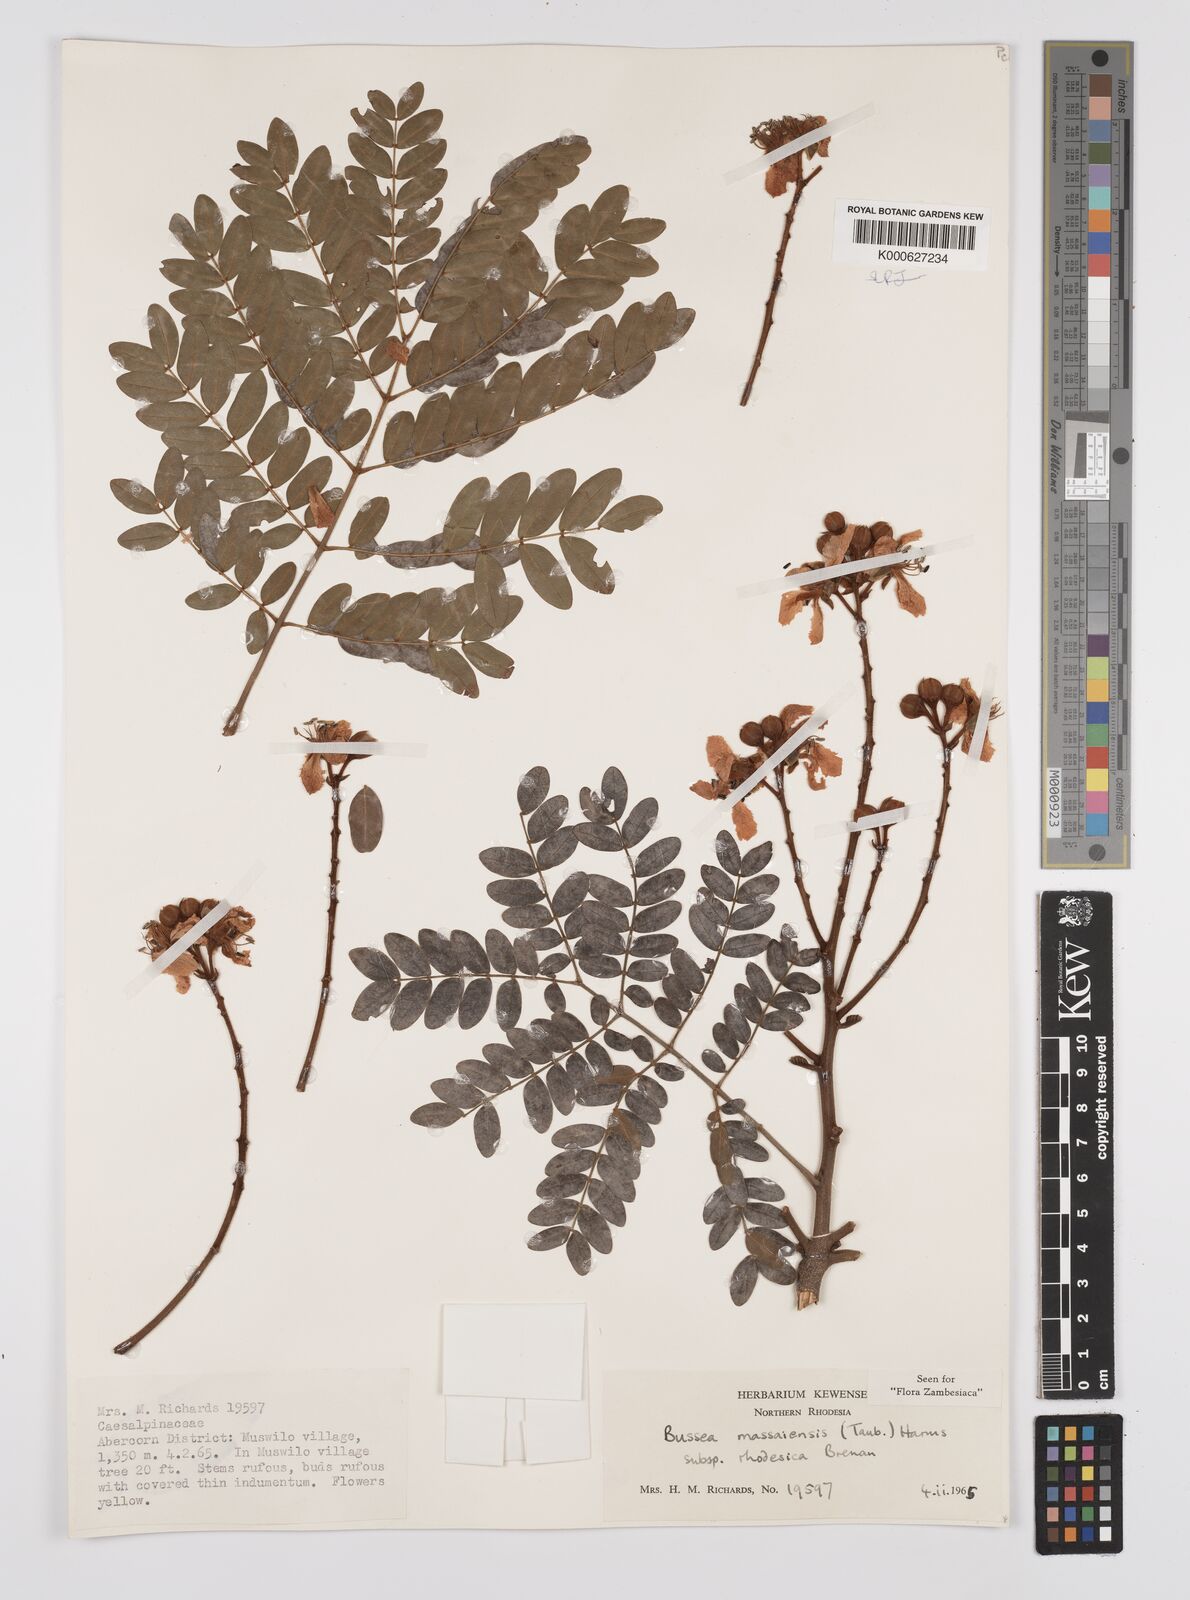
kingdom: Plantae
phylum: Tracheophyta
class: Magnoliopsida
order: Fabales
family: Fabaceae
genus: Bussea
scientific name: Bussea
